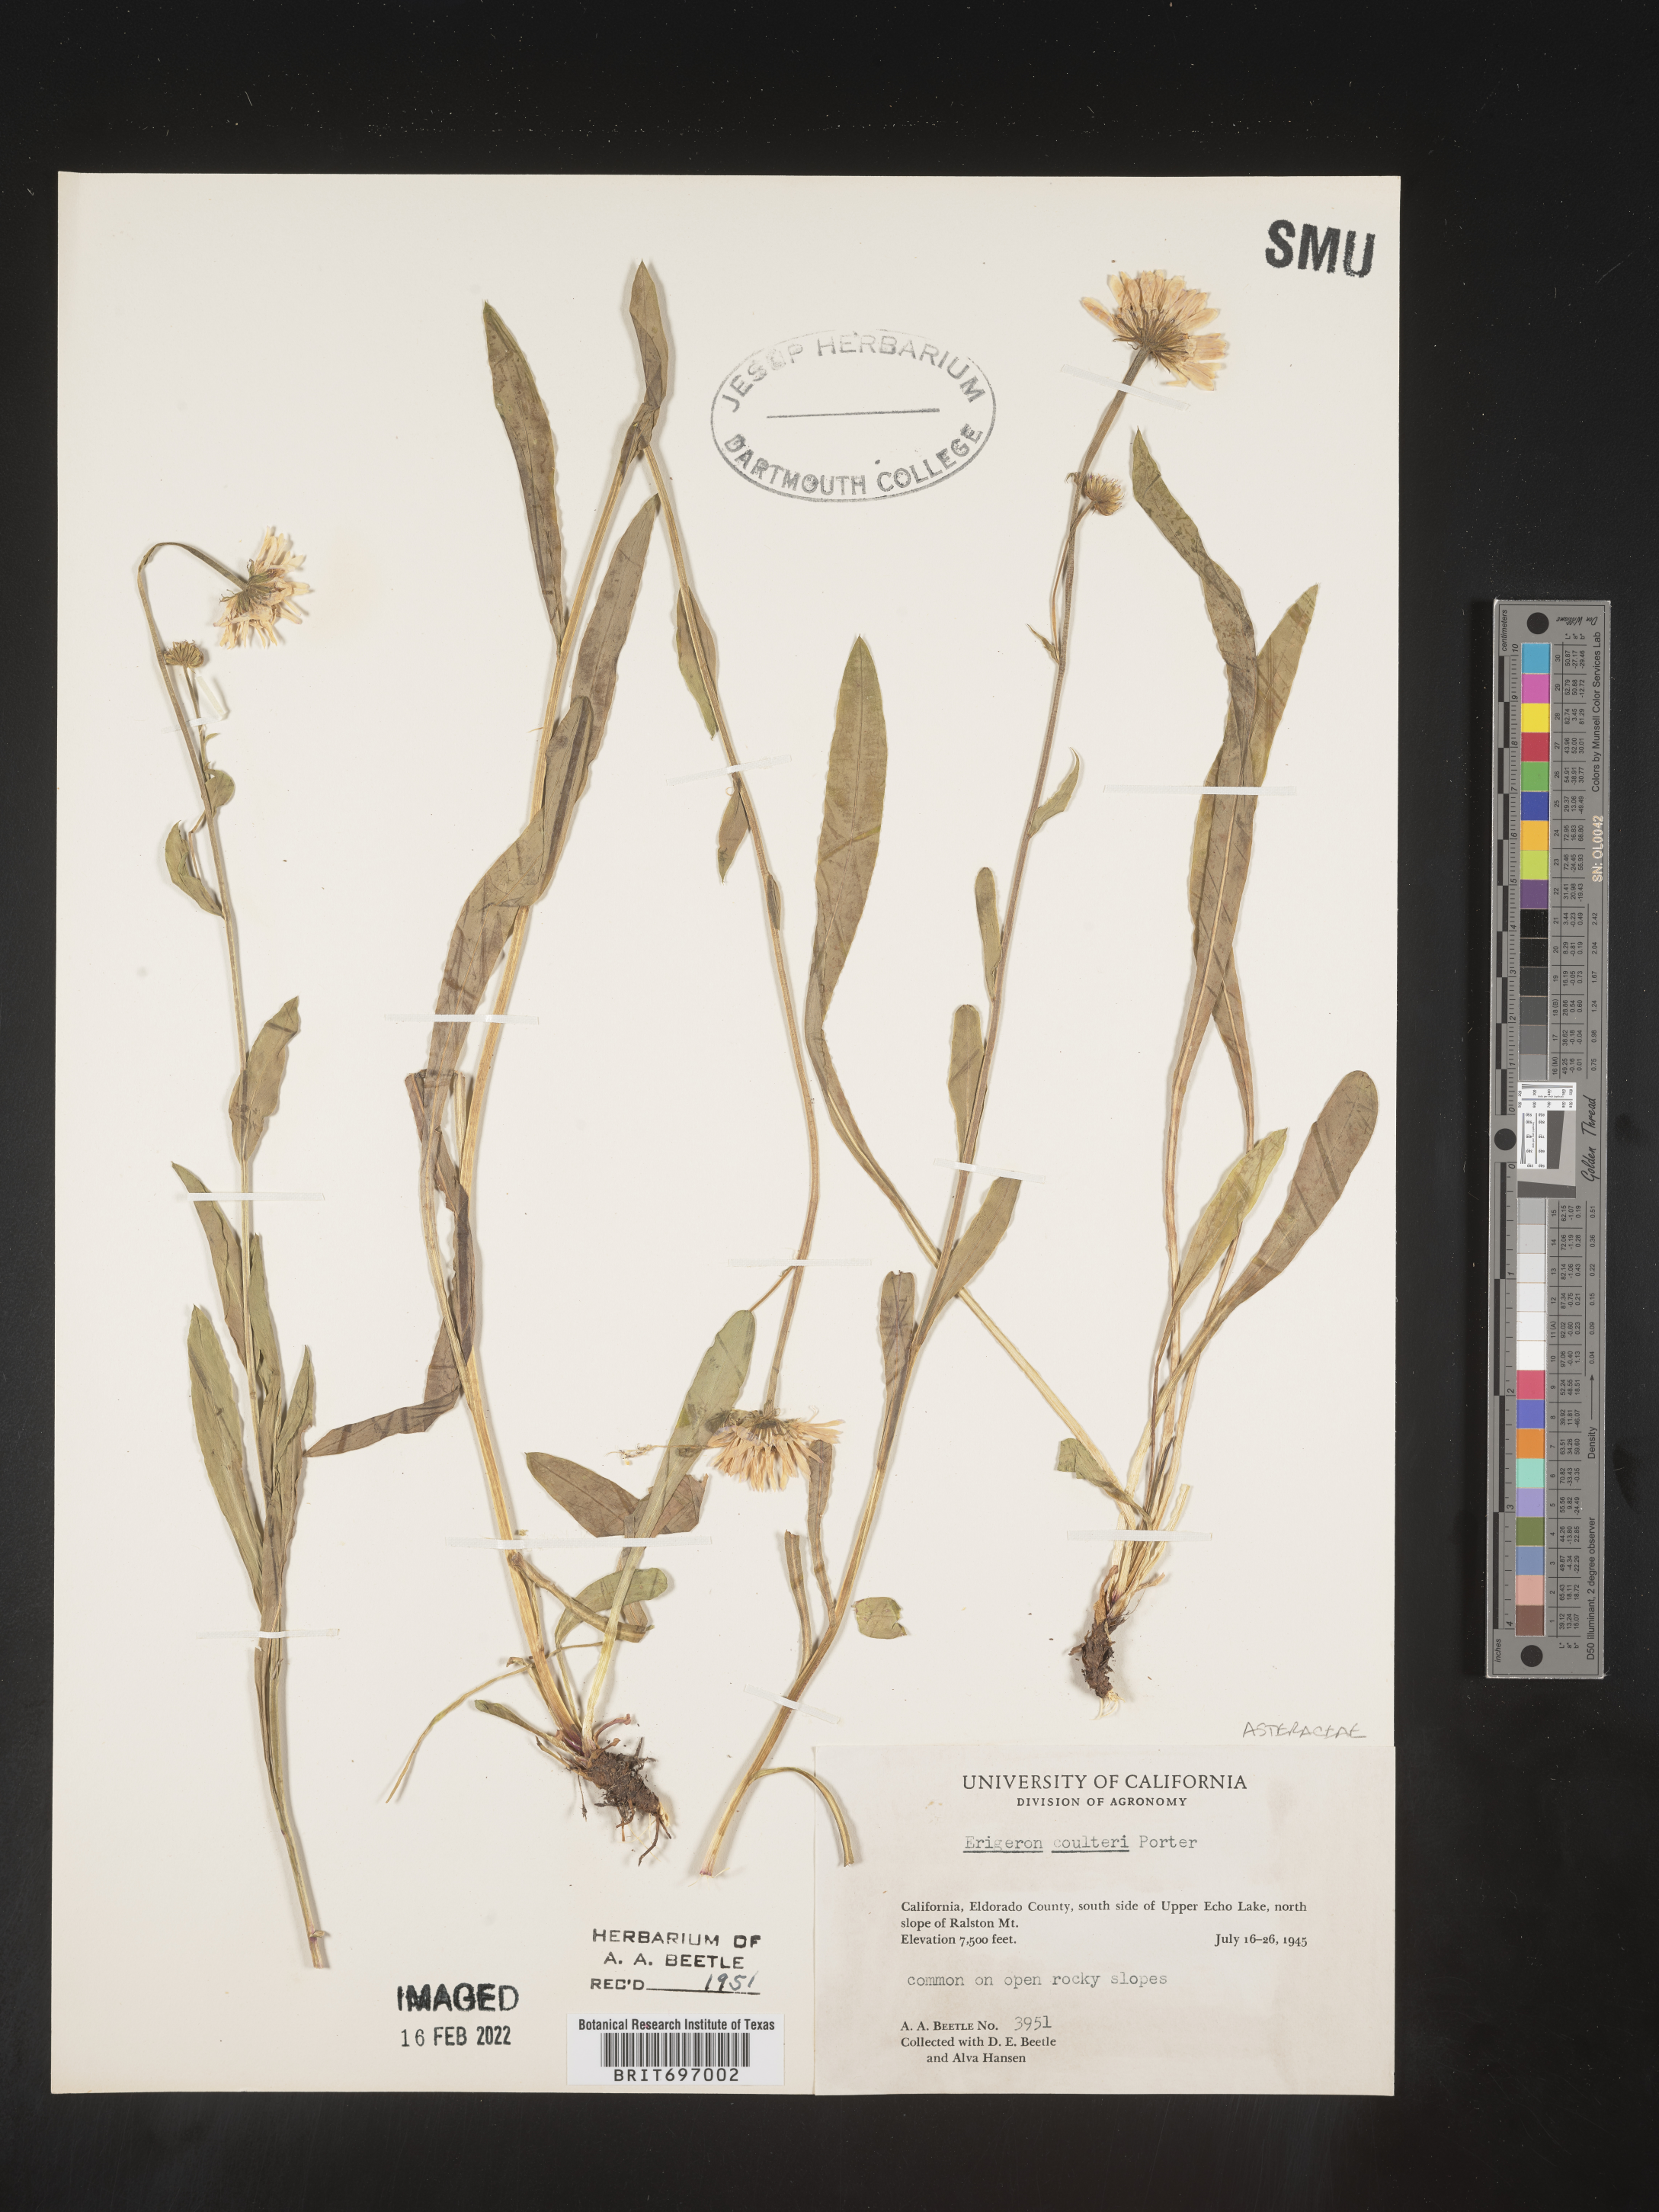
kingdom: Plantae
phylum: Tracheophyta
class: Magnoliopsida
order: Asterales
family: Asteraceae
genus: Erigeron
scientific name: Erigeron coulteri
